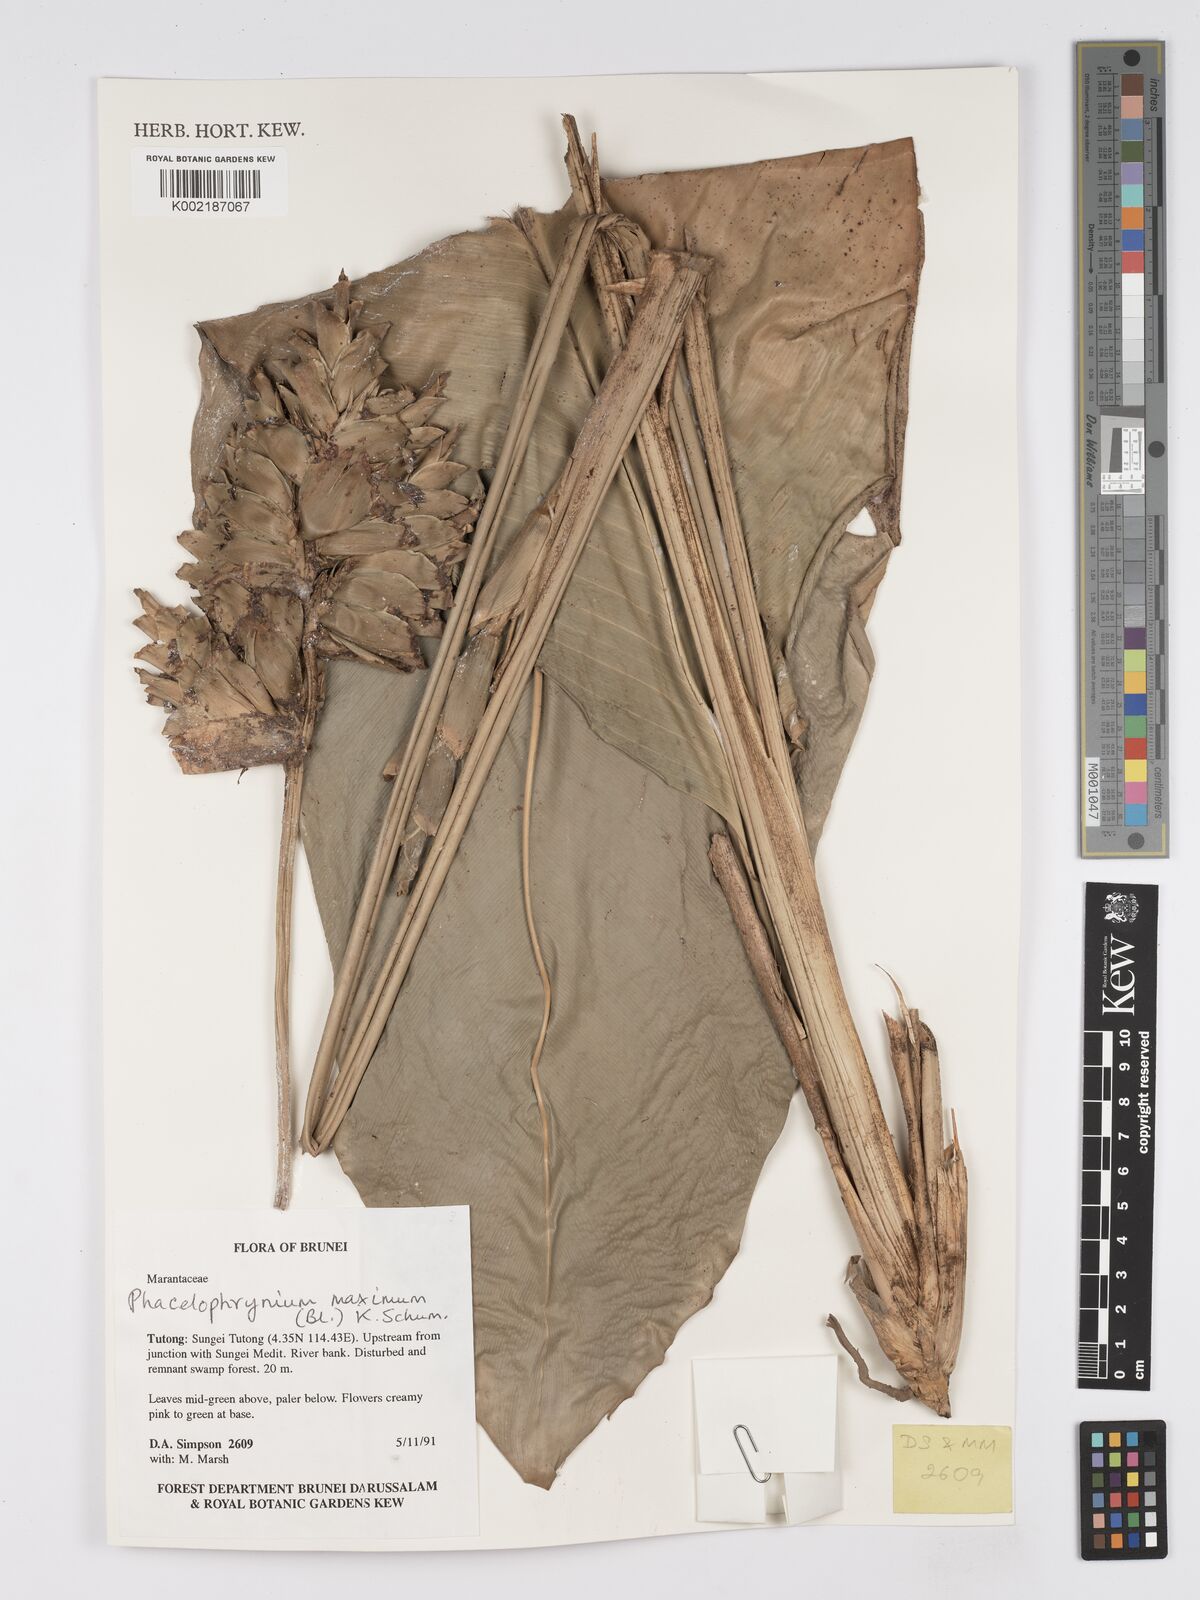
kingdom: Plantae
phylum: Tracheophyta
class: Liliopsida
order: Zingiberales
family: Marantaceae
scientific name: Marantaceae
